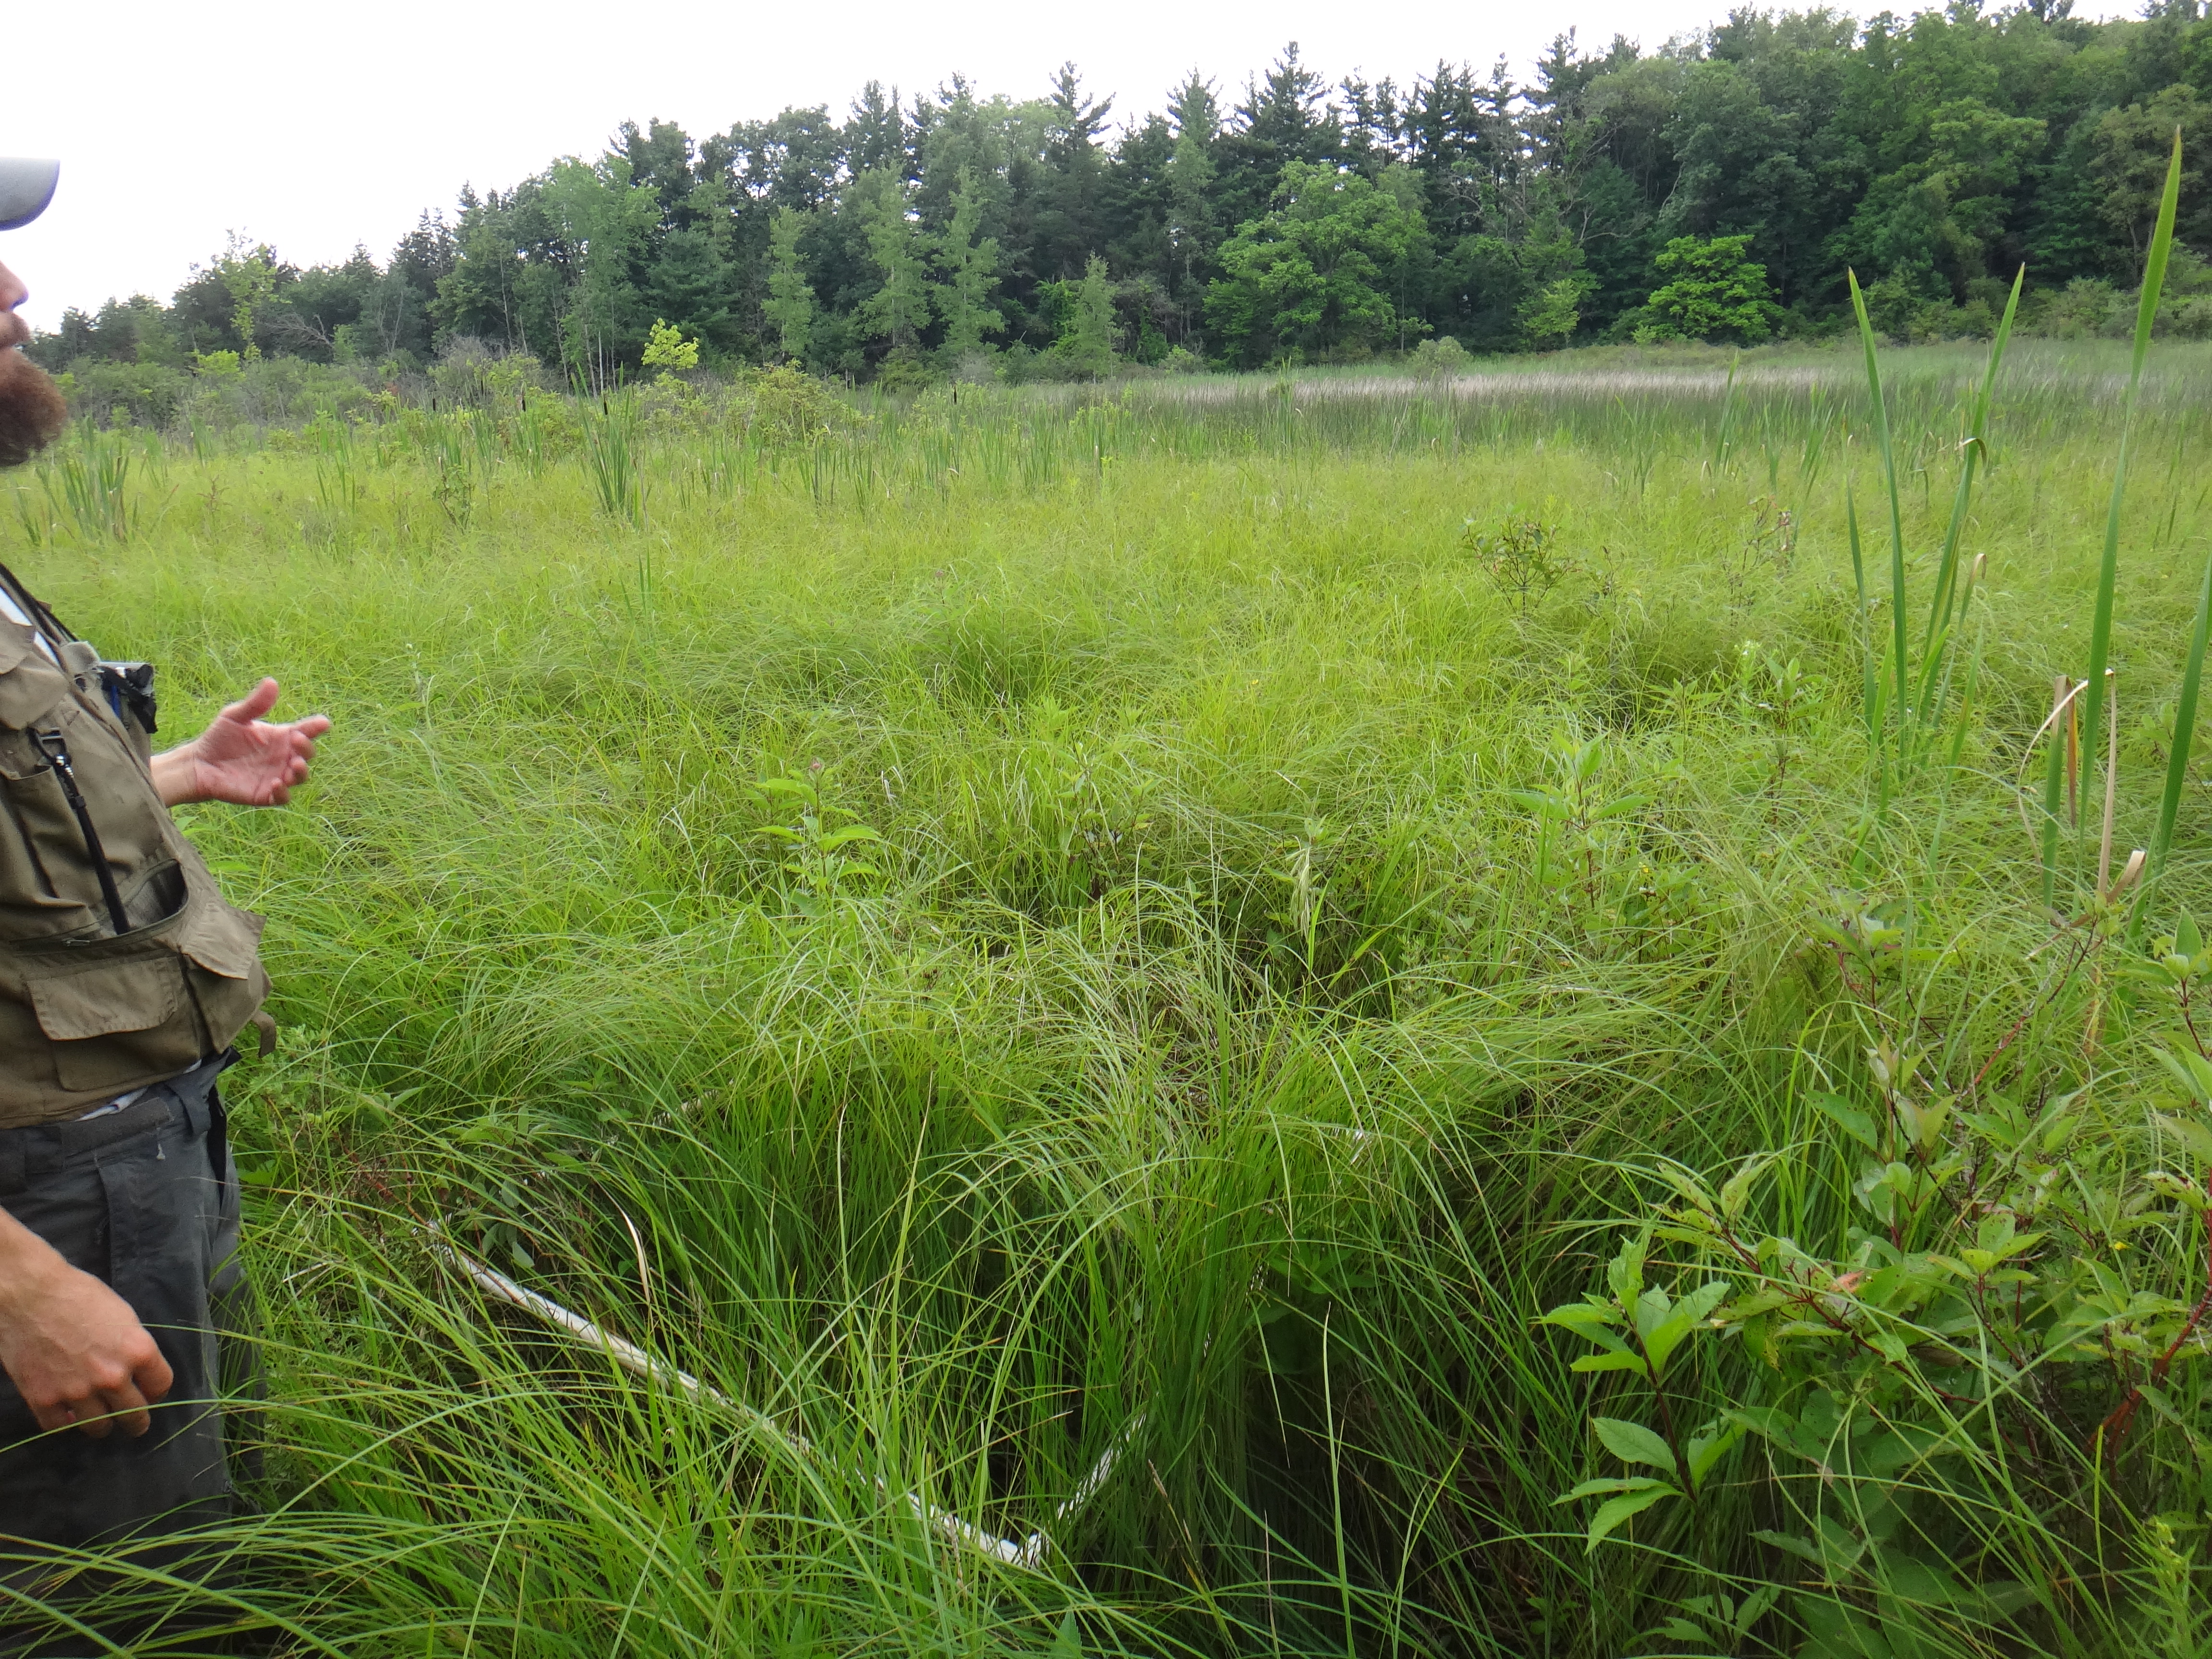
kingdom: Plantae
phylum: Tracheophyta
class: Magnoliopsida
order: Asterales
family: Asteraceae
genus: Eupatorium
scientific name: Eupatorium perfoliatum
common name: Boneset
